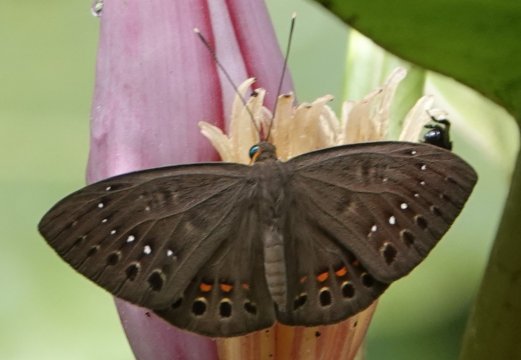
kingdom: Animalia
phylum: Cnidaria
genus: Eurybia
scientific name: Eurybia elvina
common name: Blind Eurybia
